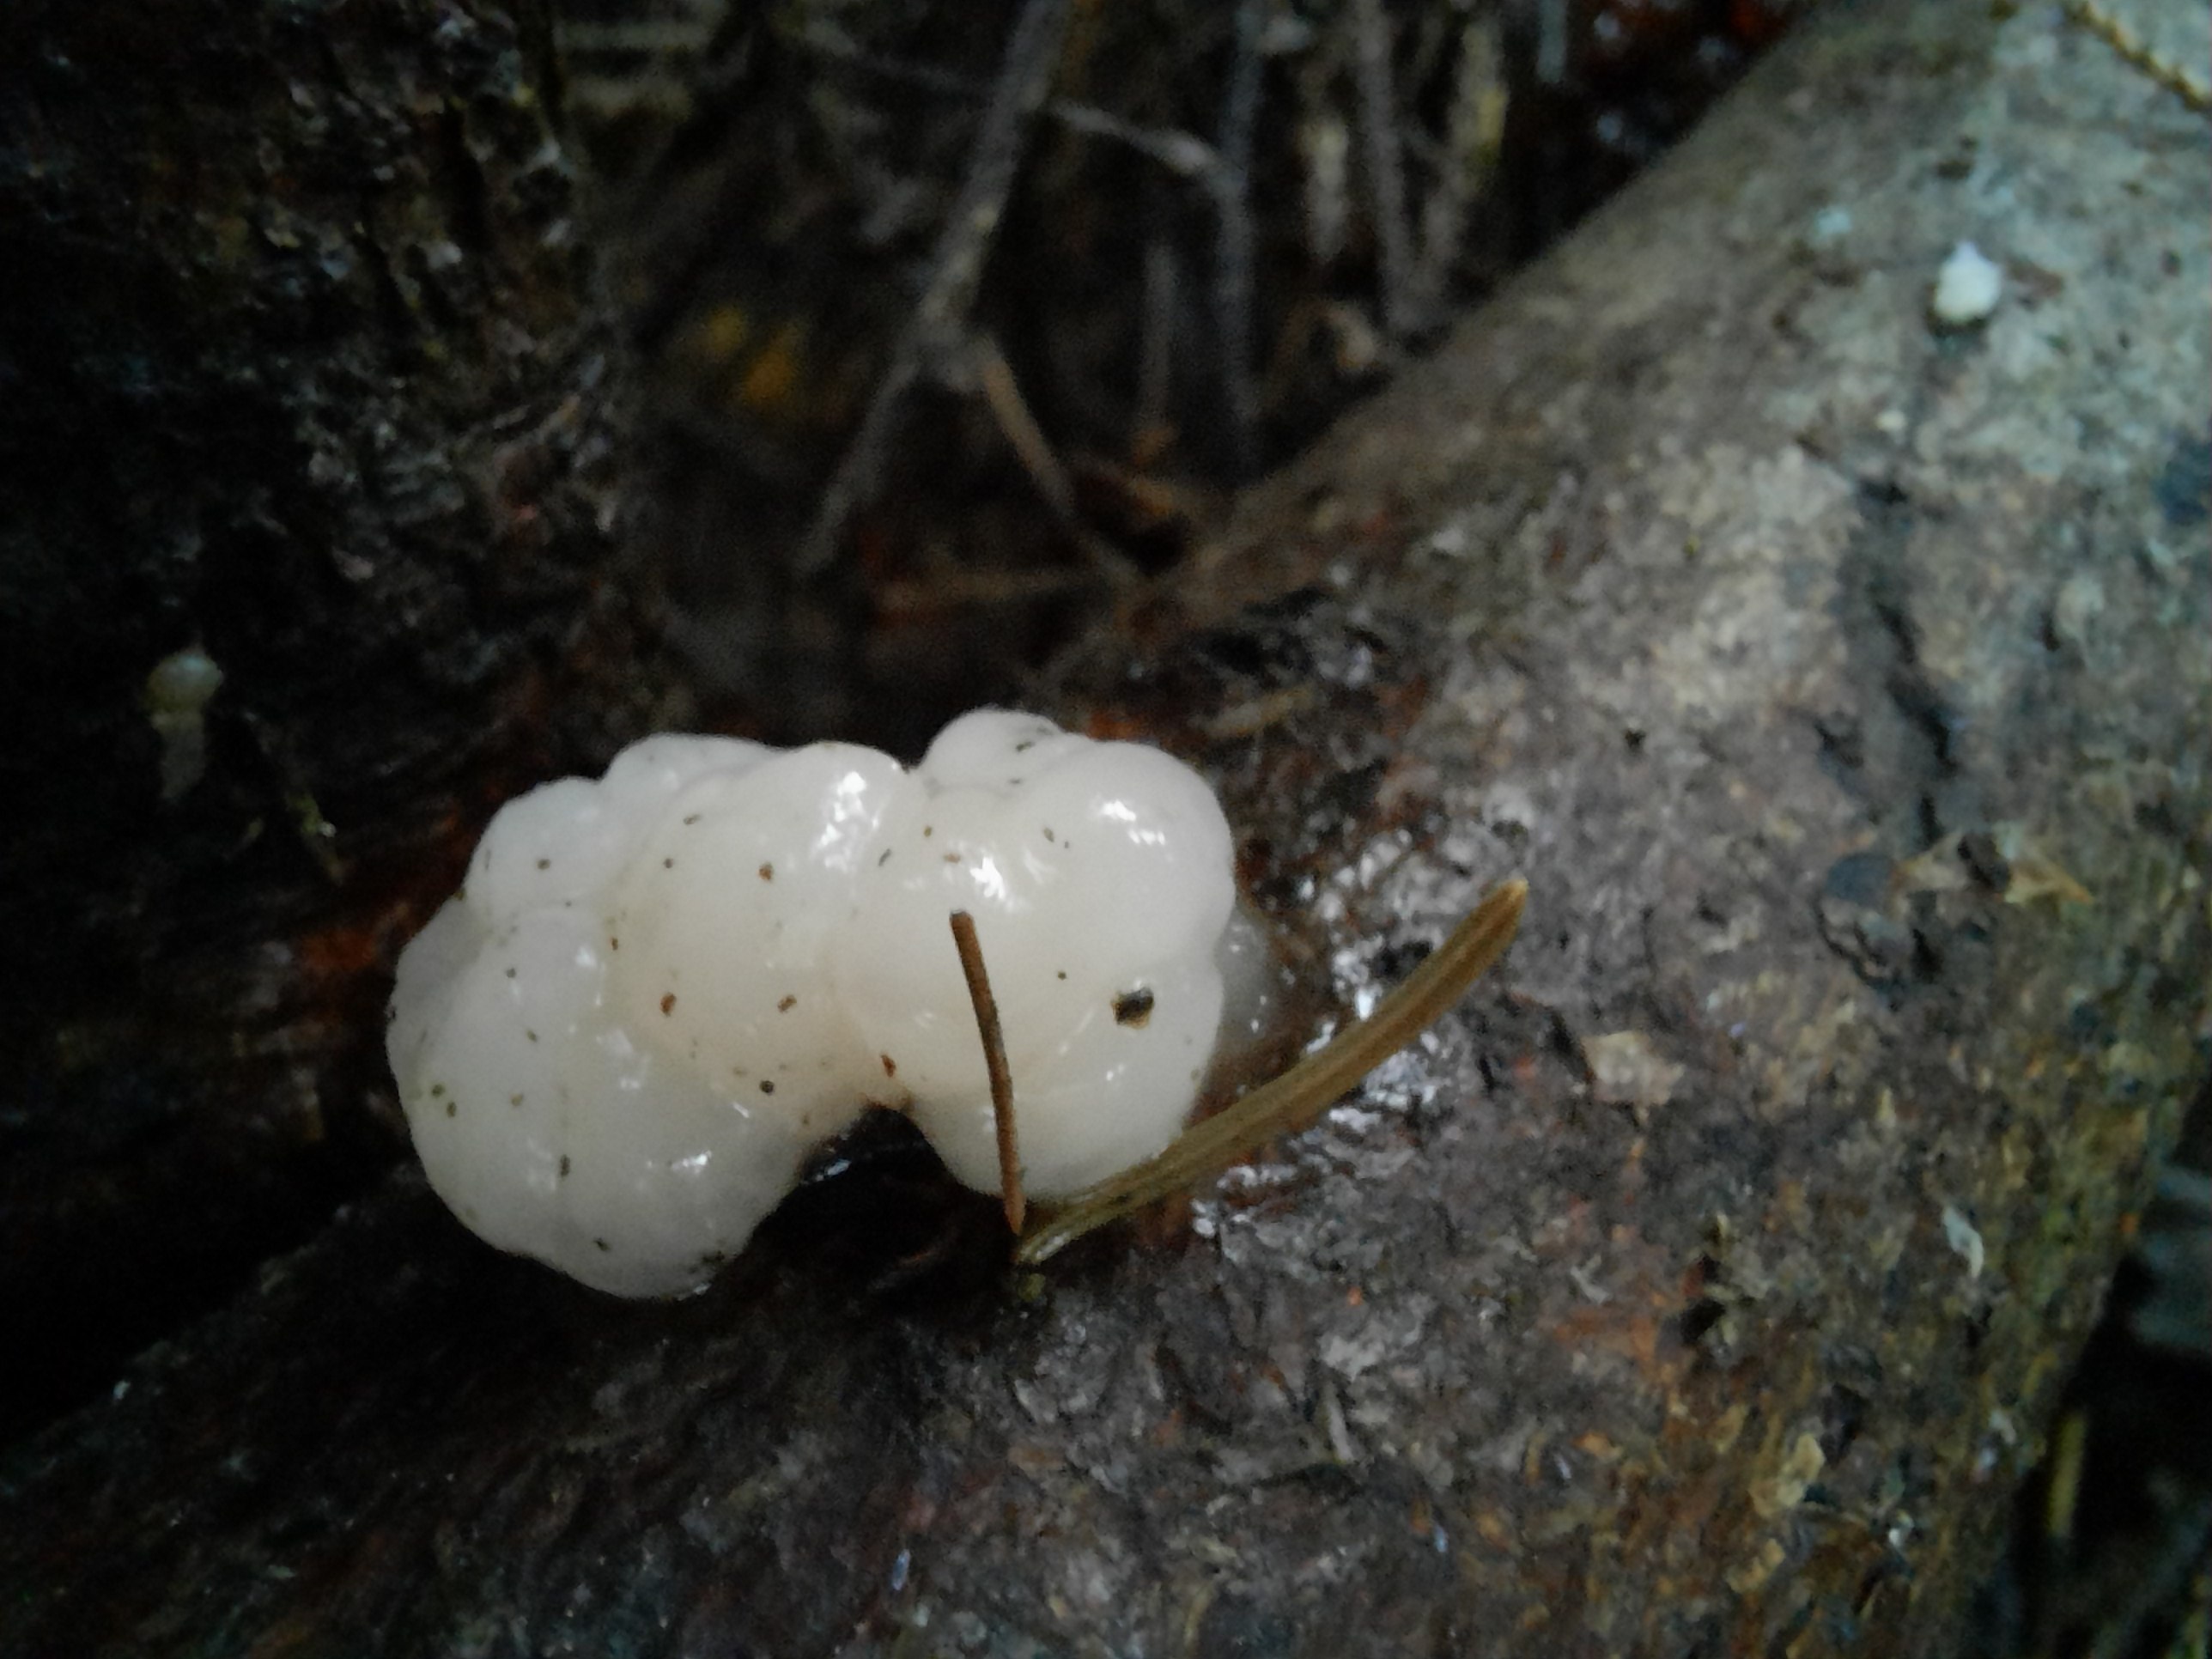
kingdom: Fungi
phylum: Basidiomycota
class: Tremellomycetes
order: Tremellales
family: Naemateliaceae
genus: Naematelia
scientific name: Naematelia encephala
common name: fyrre-bævresvamp
